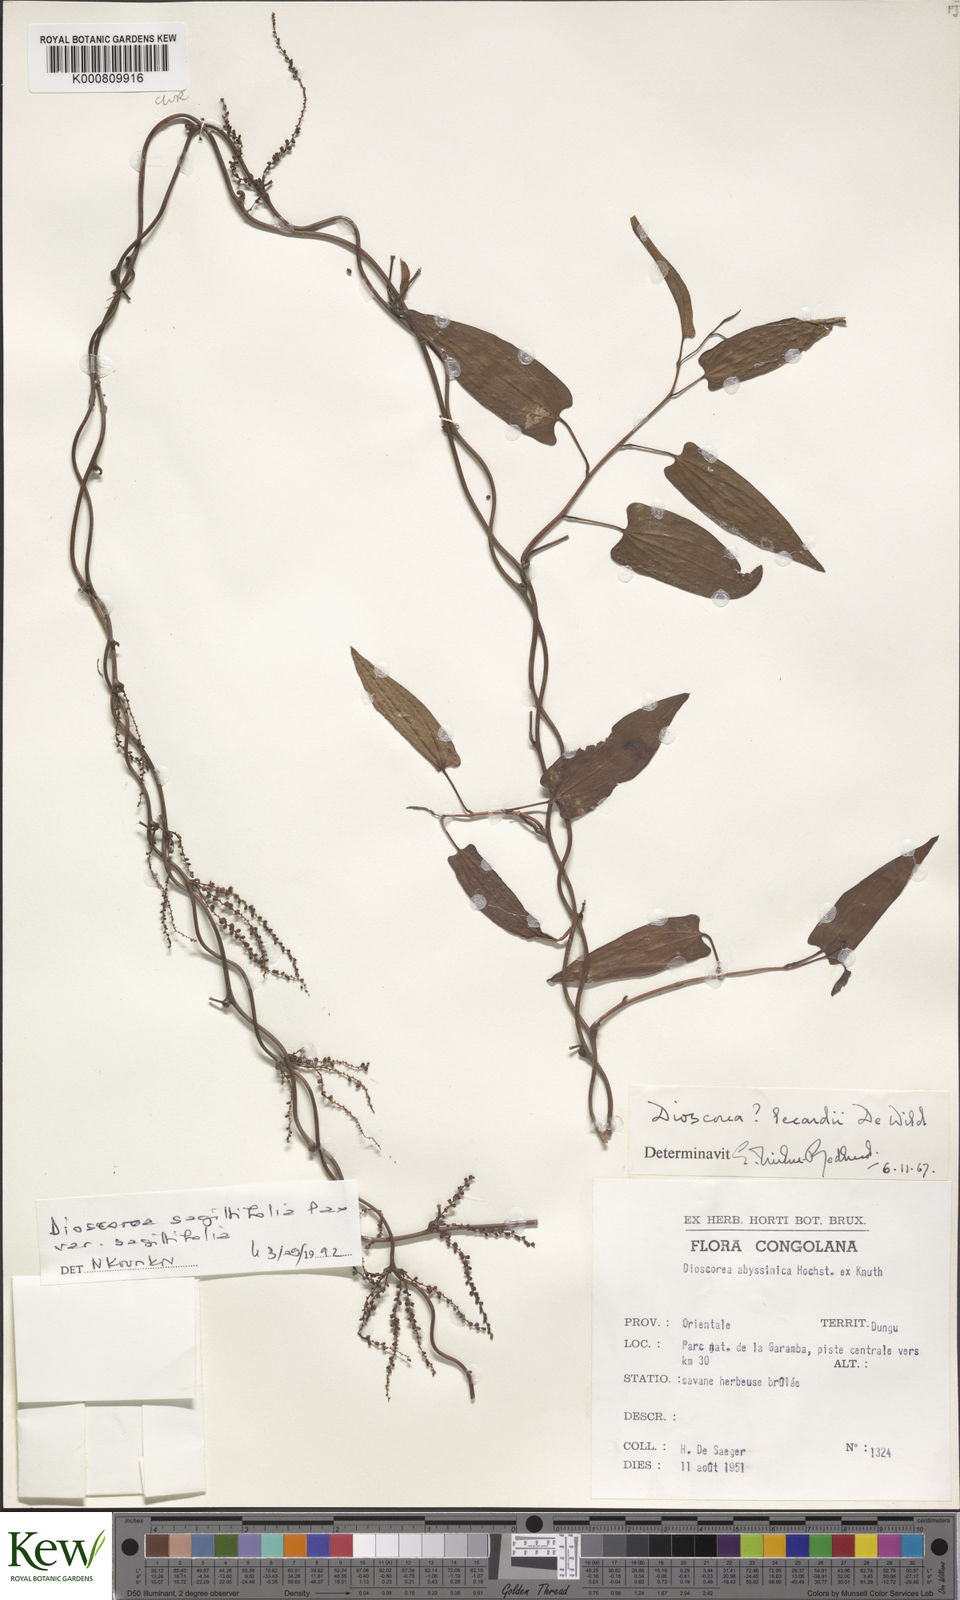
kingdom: Plantae
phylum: Tracheophyta
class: Liliopsida
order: Dioscoreales
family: Dioscoreaceae
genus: Dioscorea
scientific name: Dioscorea sagittifolia
